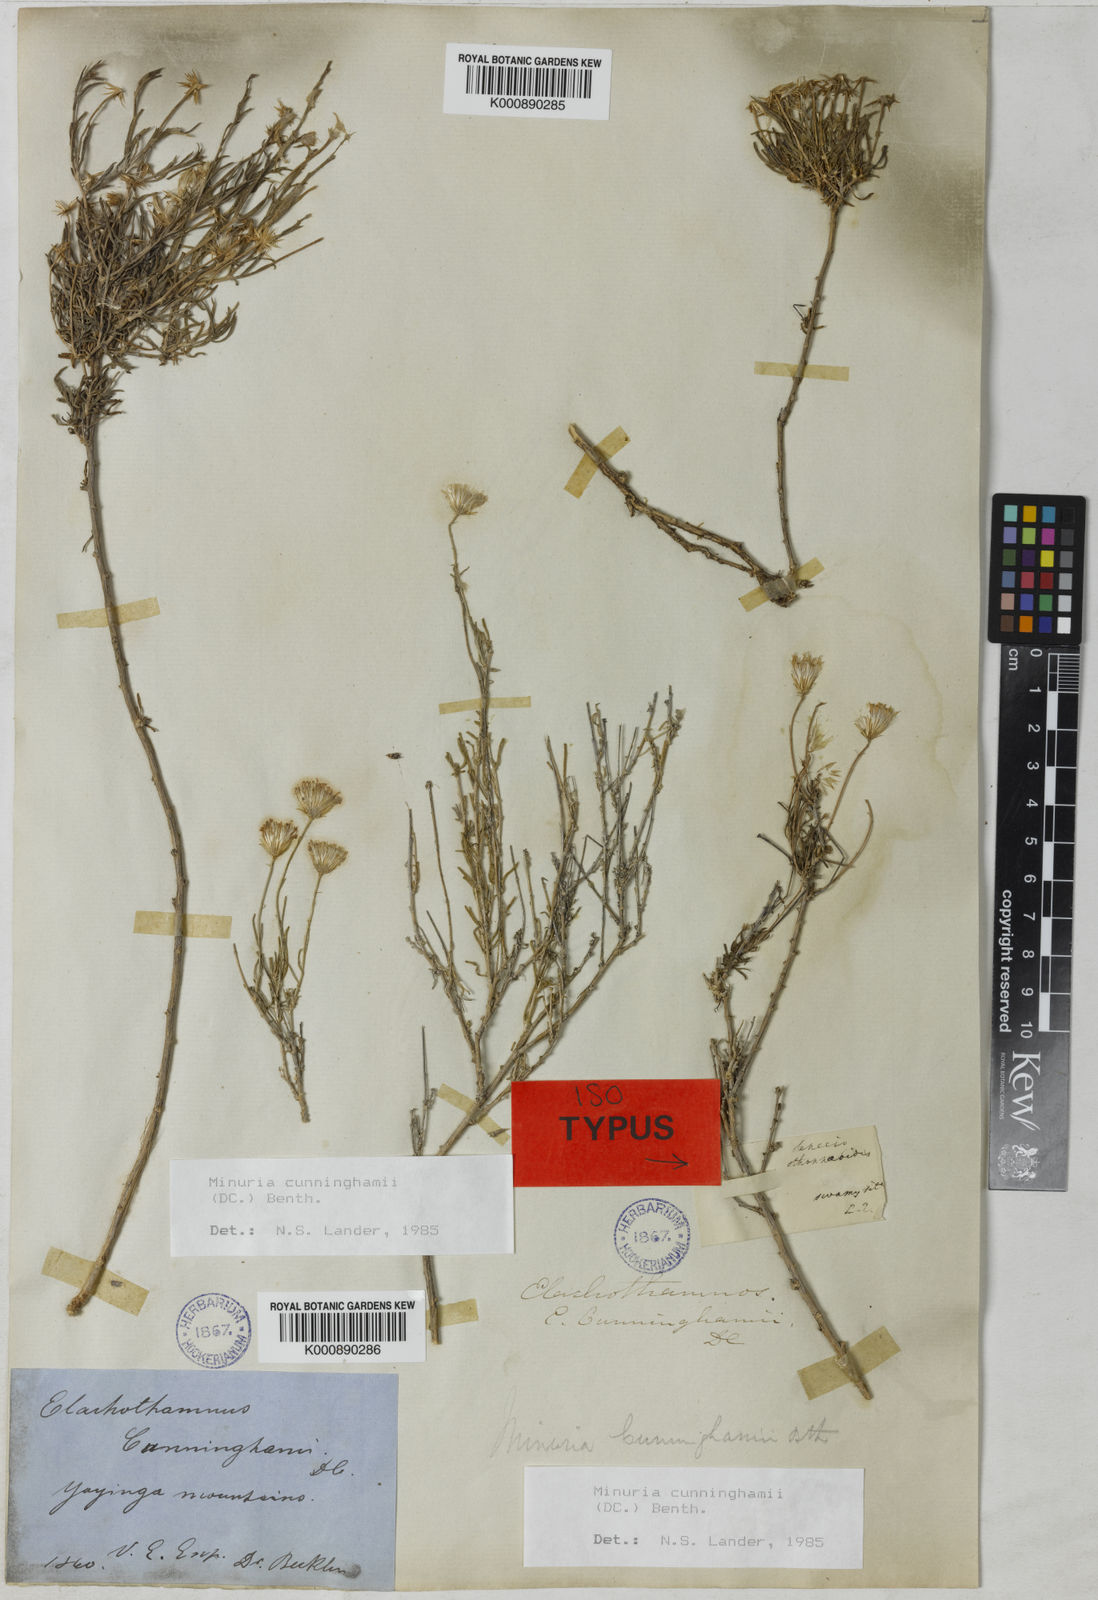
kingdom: Plantae
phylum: Tracheophyta
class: Magnoliopsida
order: Asterales
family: Asteraceae
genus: Minuria
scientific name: Minuria cunninghamii
